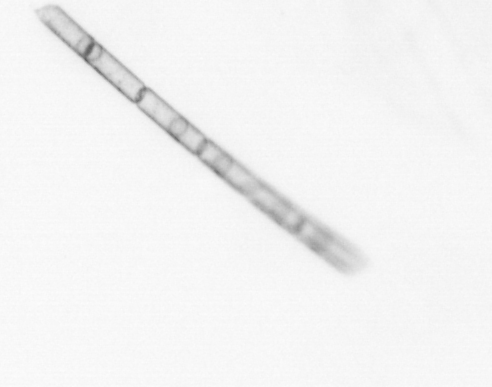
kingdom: Chromista
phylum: Ochrophyta
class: Bacillariophyceae
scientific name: Bacillariophyceae
